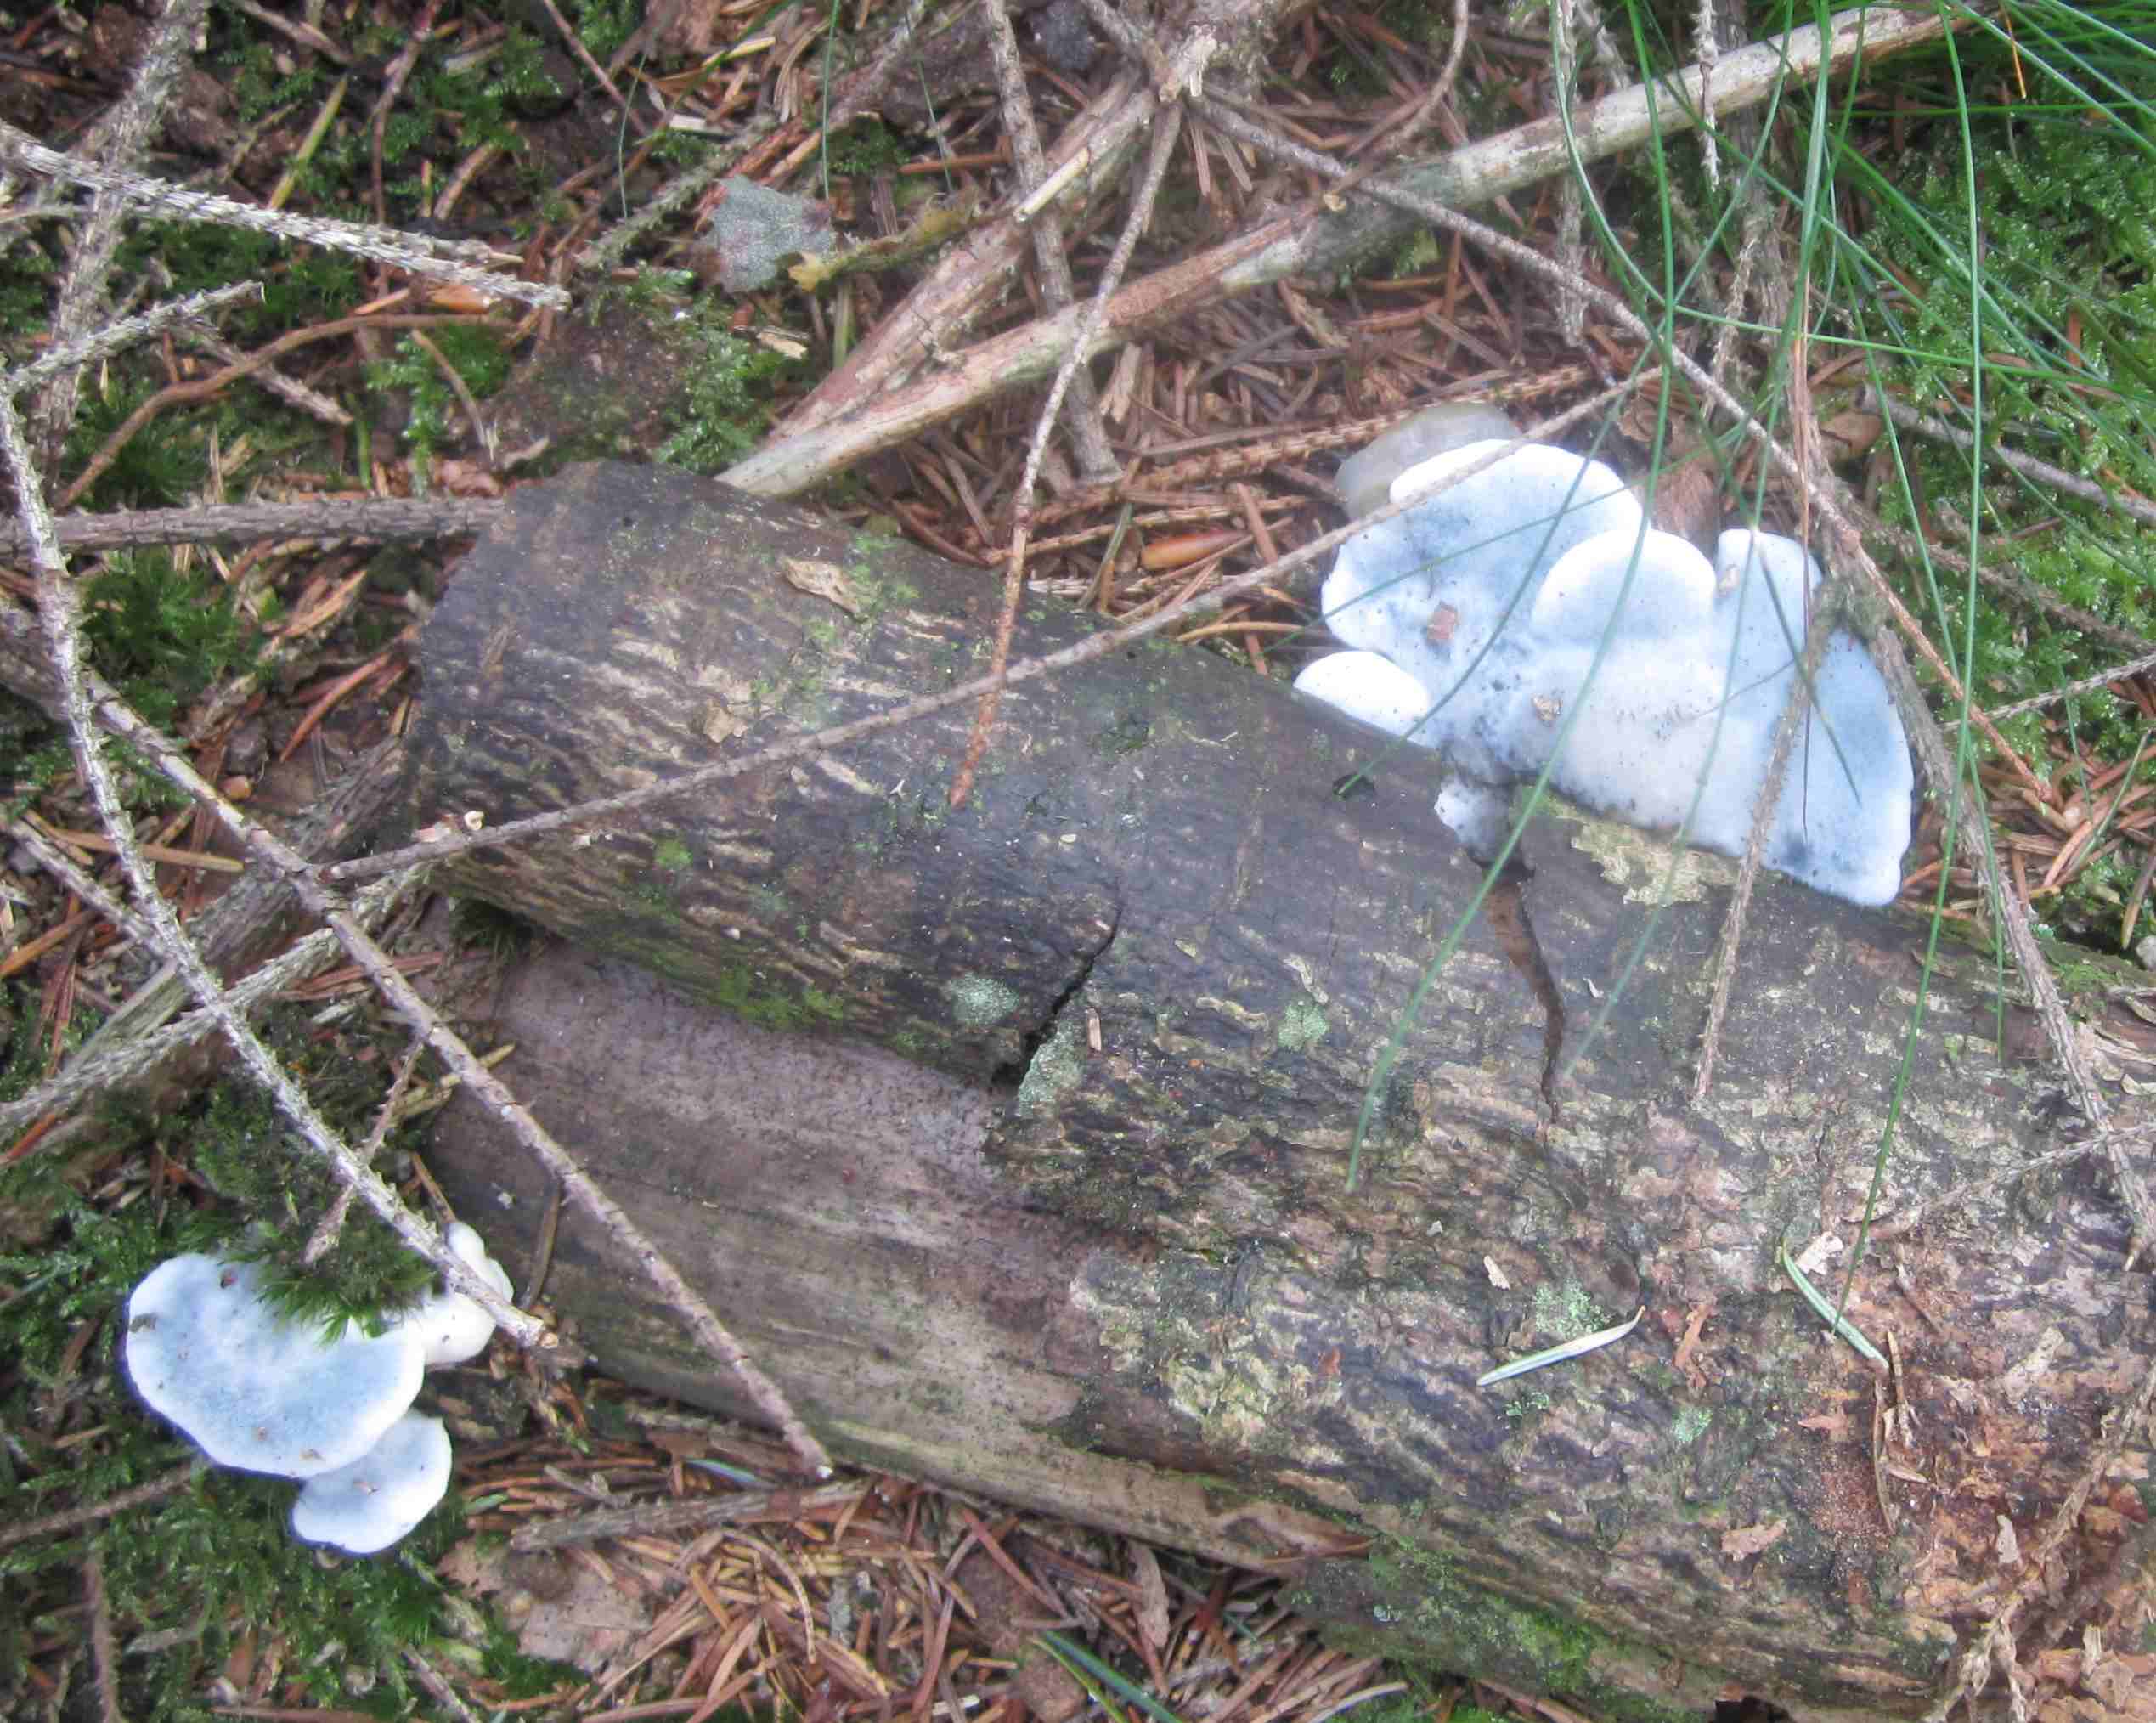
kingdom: Fungi
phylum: Basidiomycota
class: Agaricomycetes
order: Polyporales
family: Polyporaceae
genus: Cyanosporus
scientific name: Cyanosporus caesius
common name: blålig kødporesvamp
